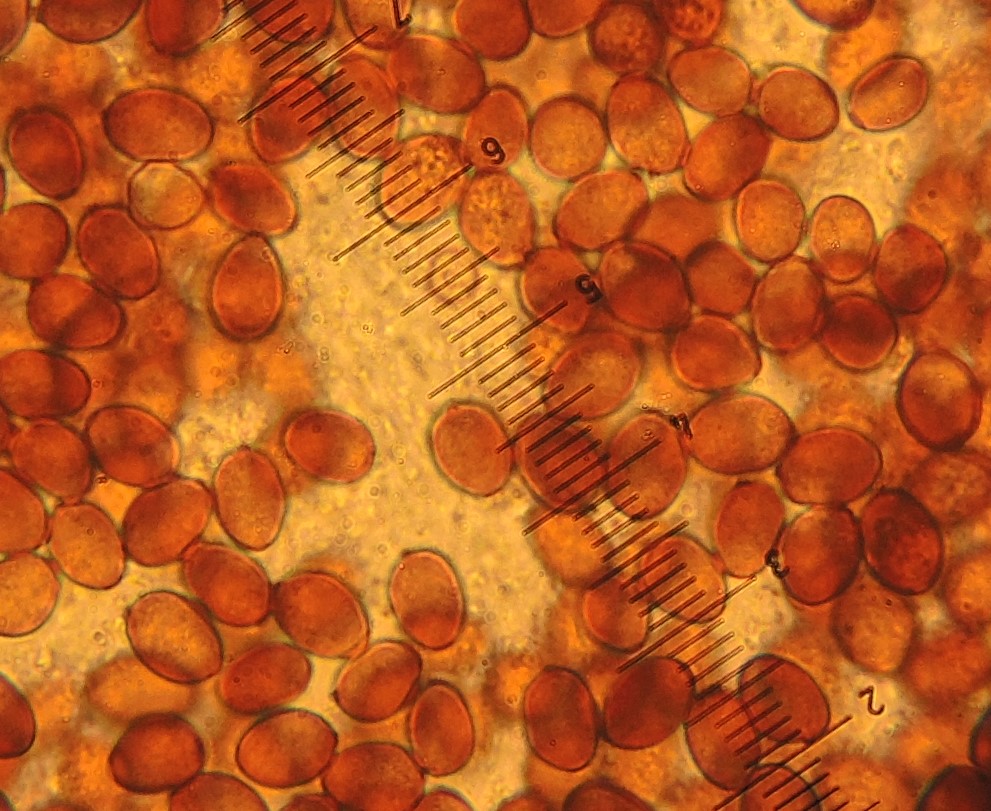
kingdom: Fungi
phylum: Basidiomycota
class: Agaricomycetes
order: Agaricales
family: Psathyrellaceae
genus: Coprinopsis
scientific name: Coprinopsis friesii
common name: græs-blækhat
